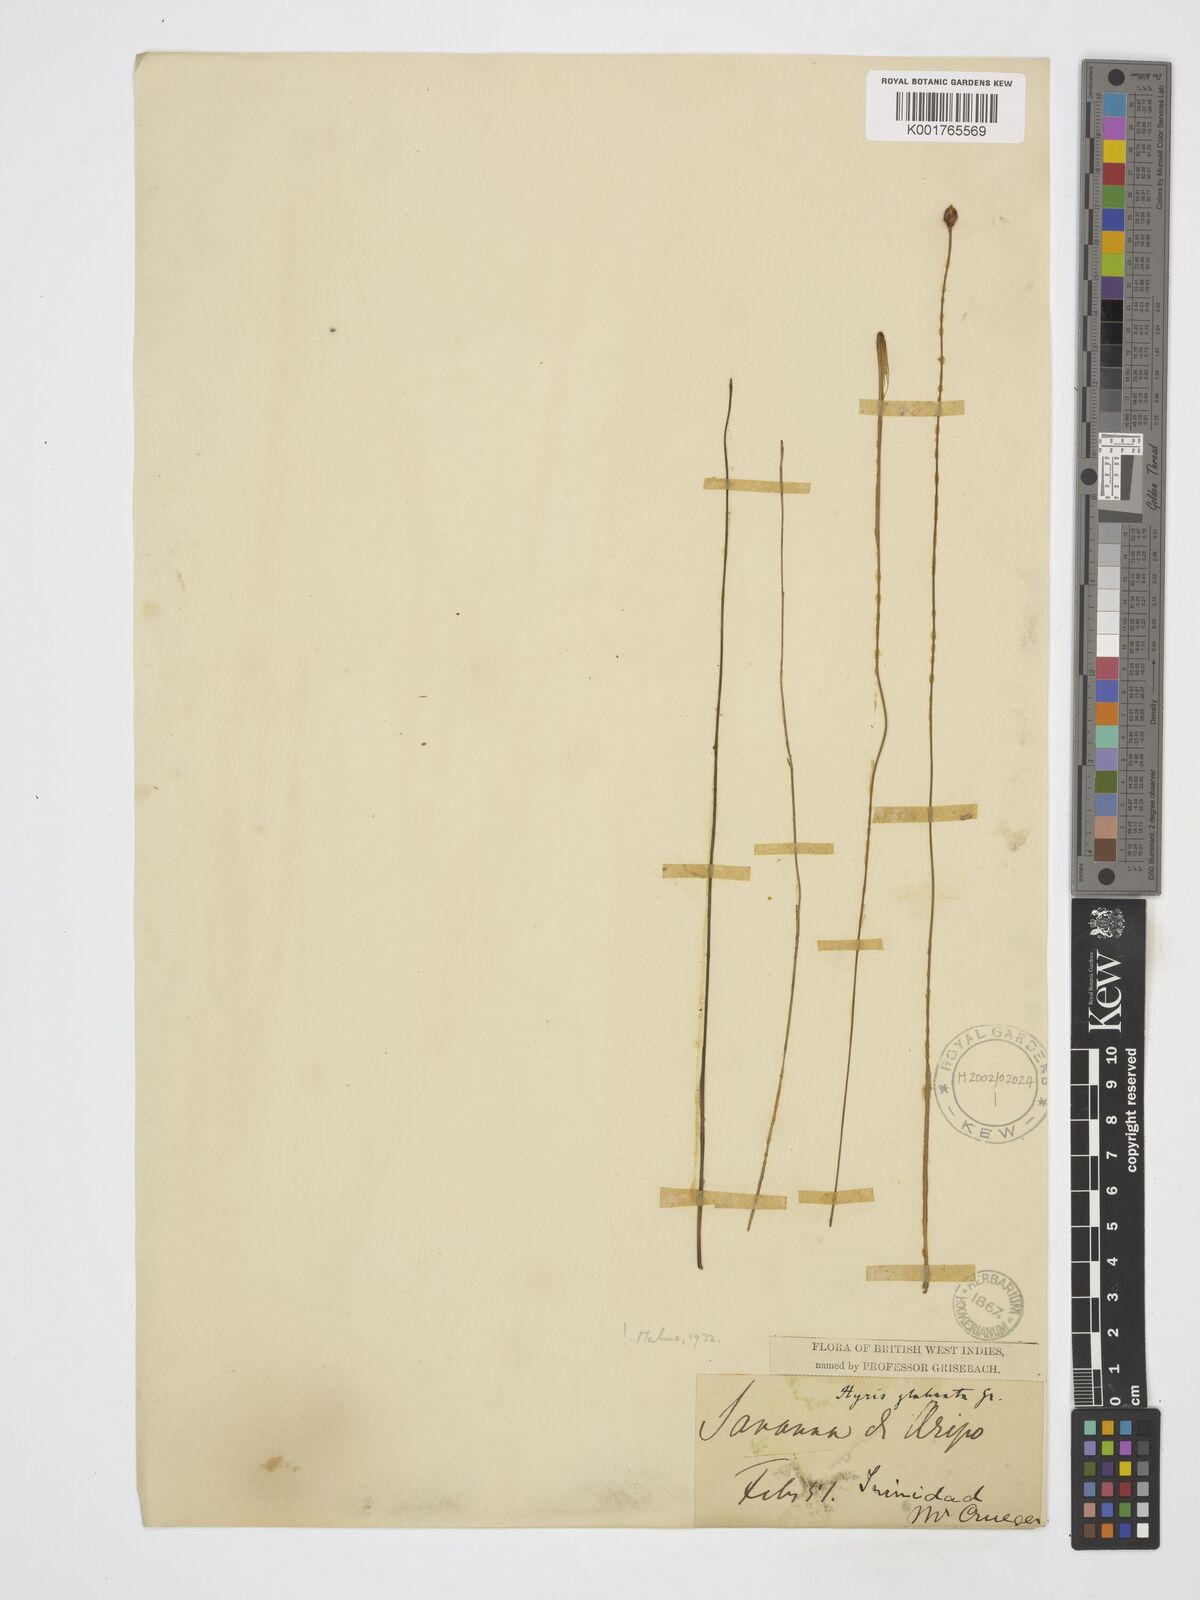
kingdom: Plantae
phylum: Tracheophyta
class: Liliopsida
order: Poales
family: Xyridaceae
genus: Xyris
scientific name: Xyris savanensis
